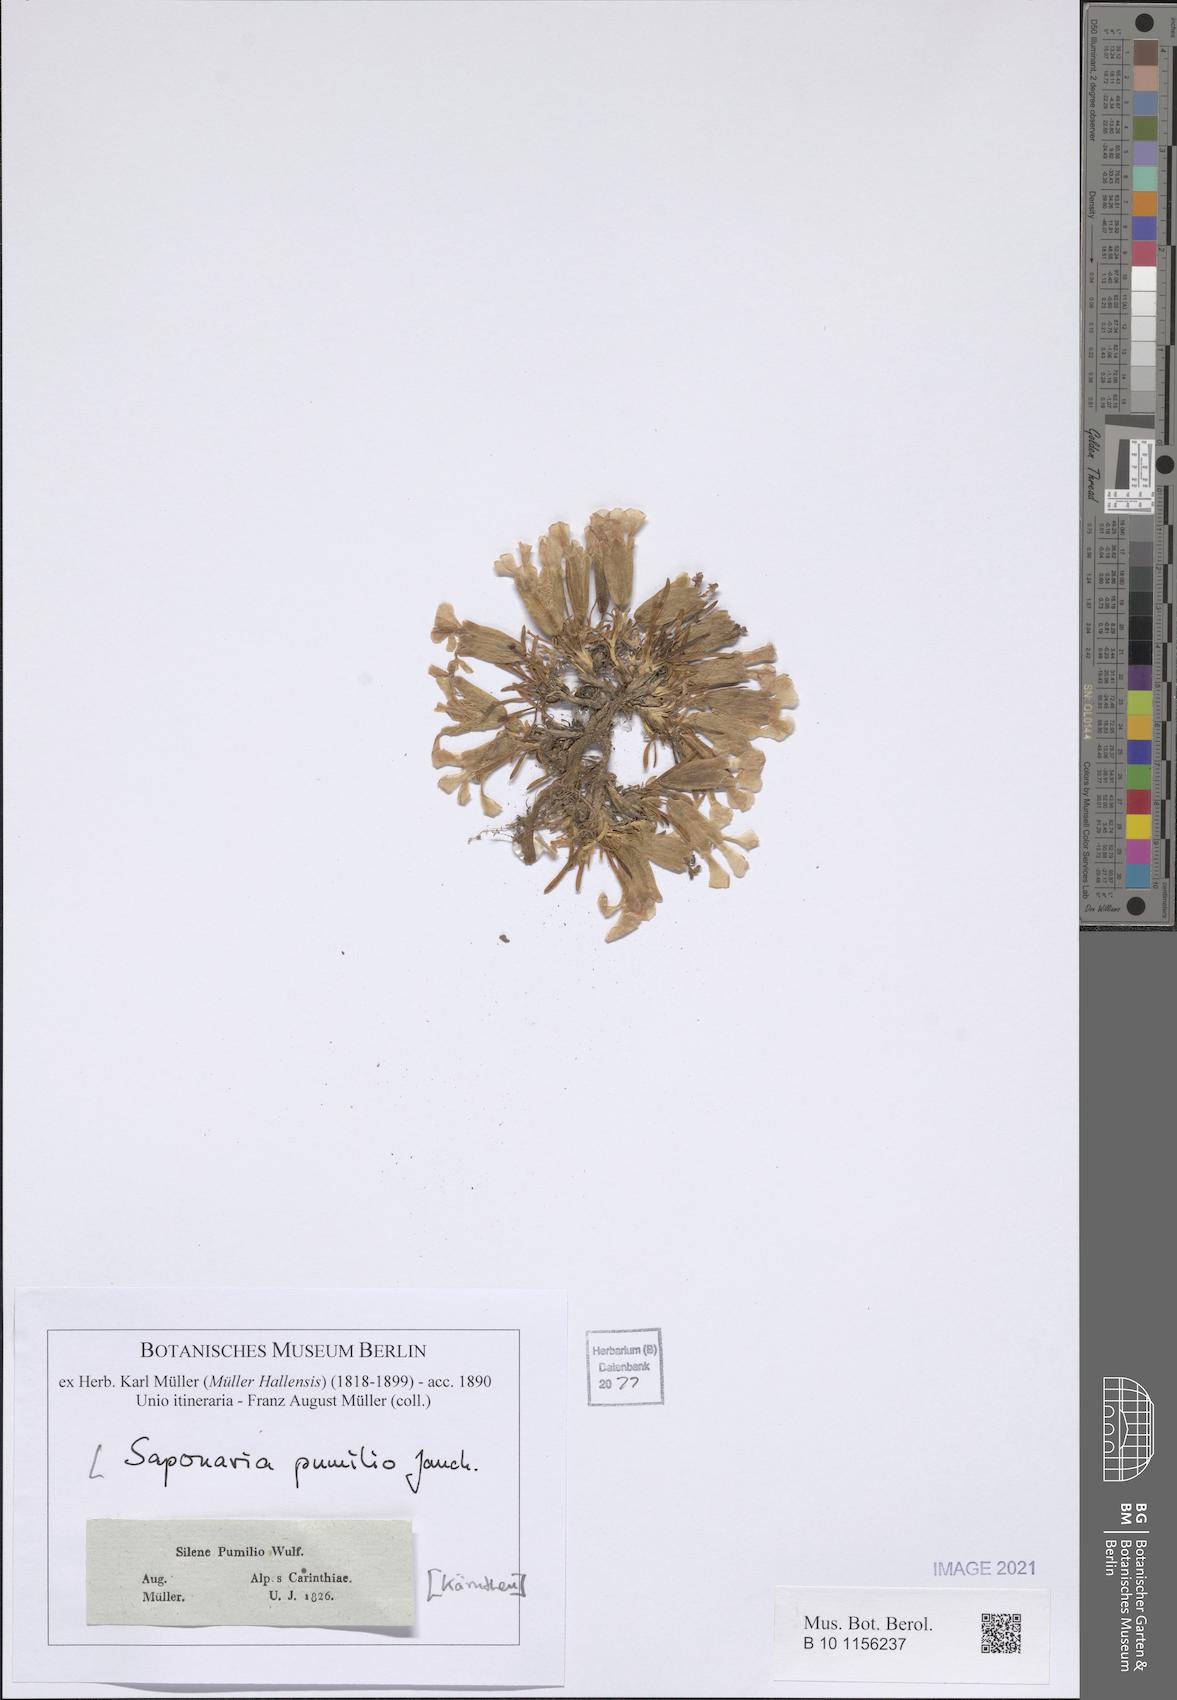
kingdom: Plantae
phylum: Tracheophyta
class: Magnoliopsida
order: Caryophyllales
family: Caryophyllaceae
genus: Saponaria
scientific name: Saponaria pumila
